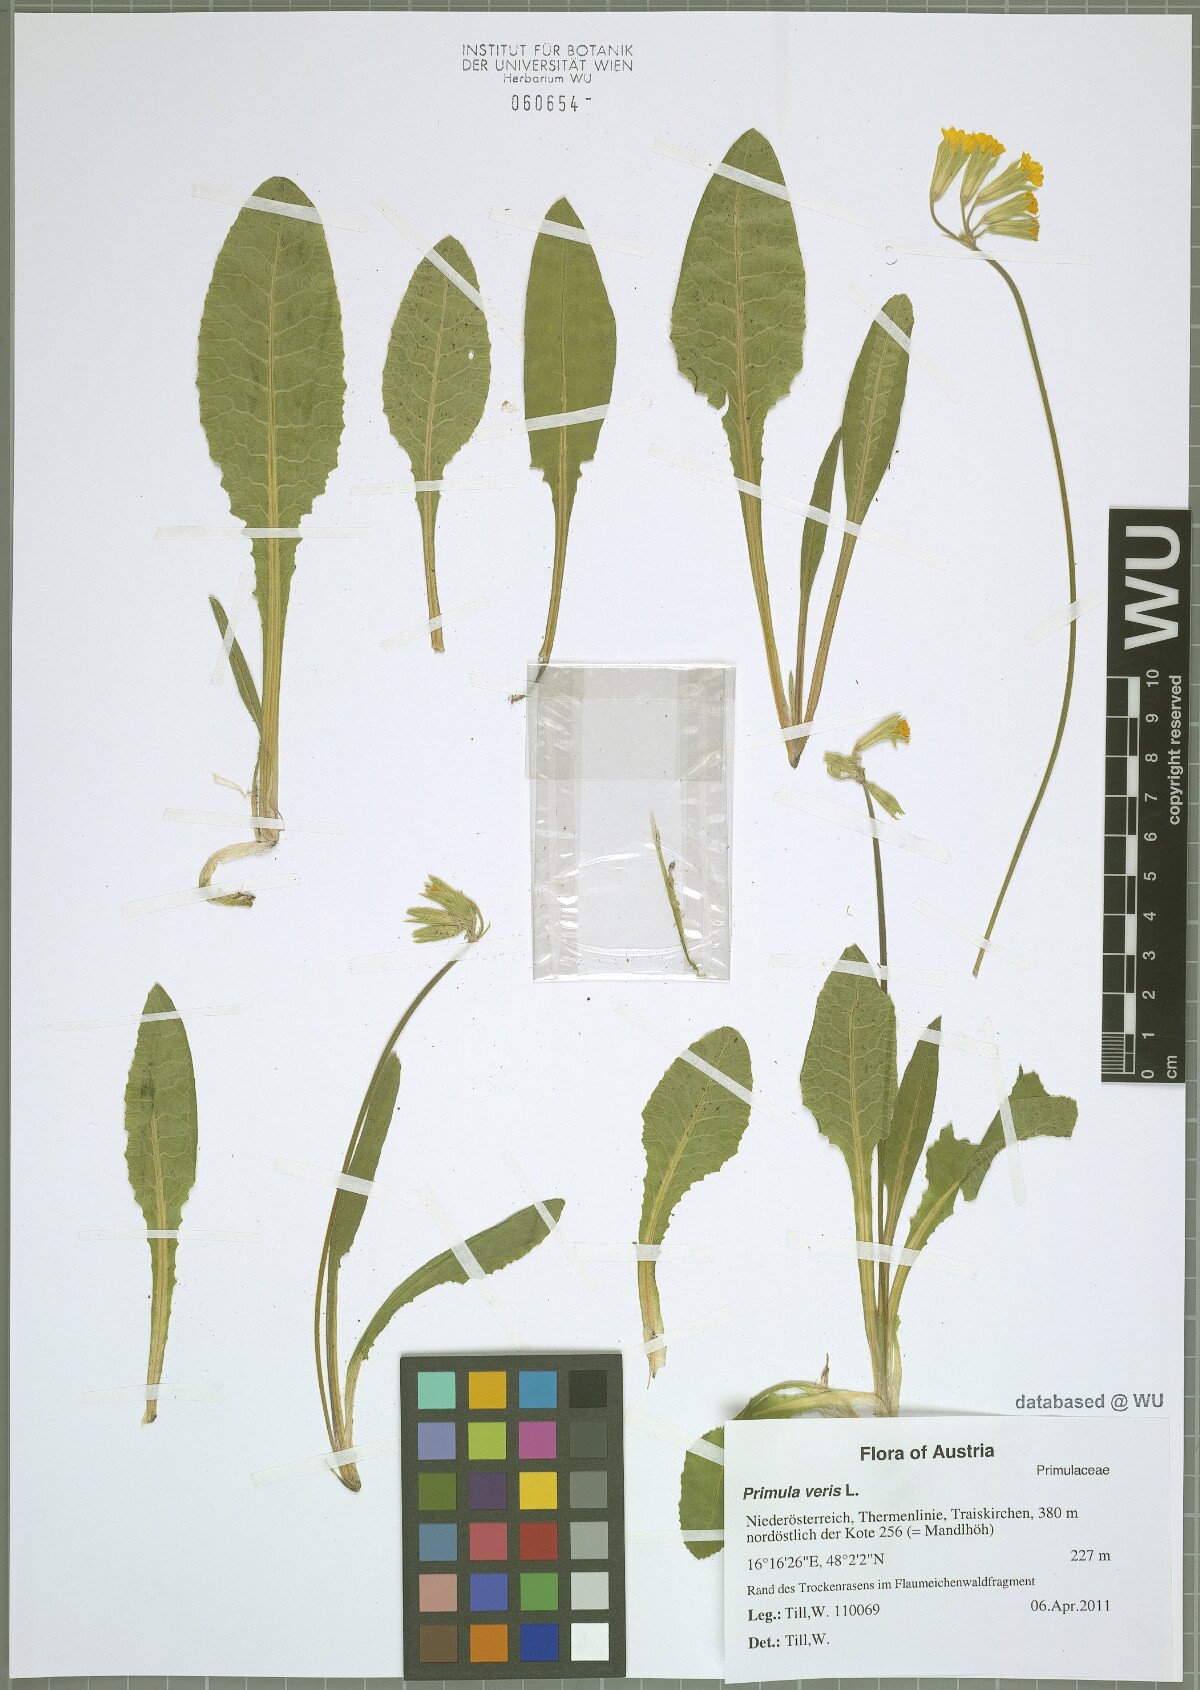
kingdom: Plantae
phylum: Tracheophyta
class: Magnoliopsida
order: Ericales
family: Primulaceae
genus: Primula
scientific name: Primula veris
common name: Cowslip
